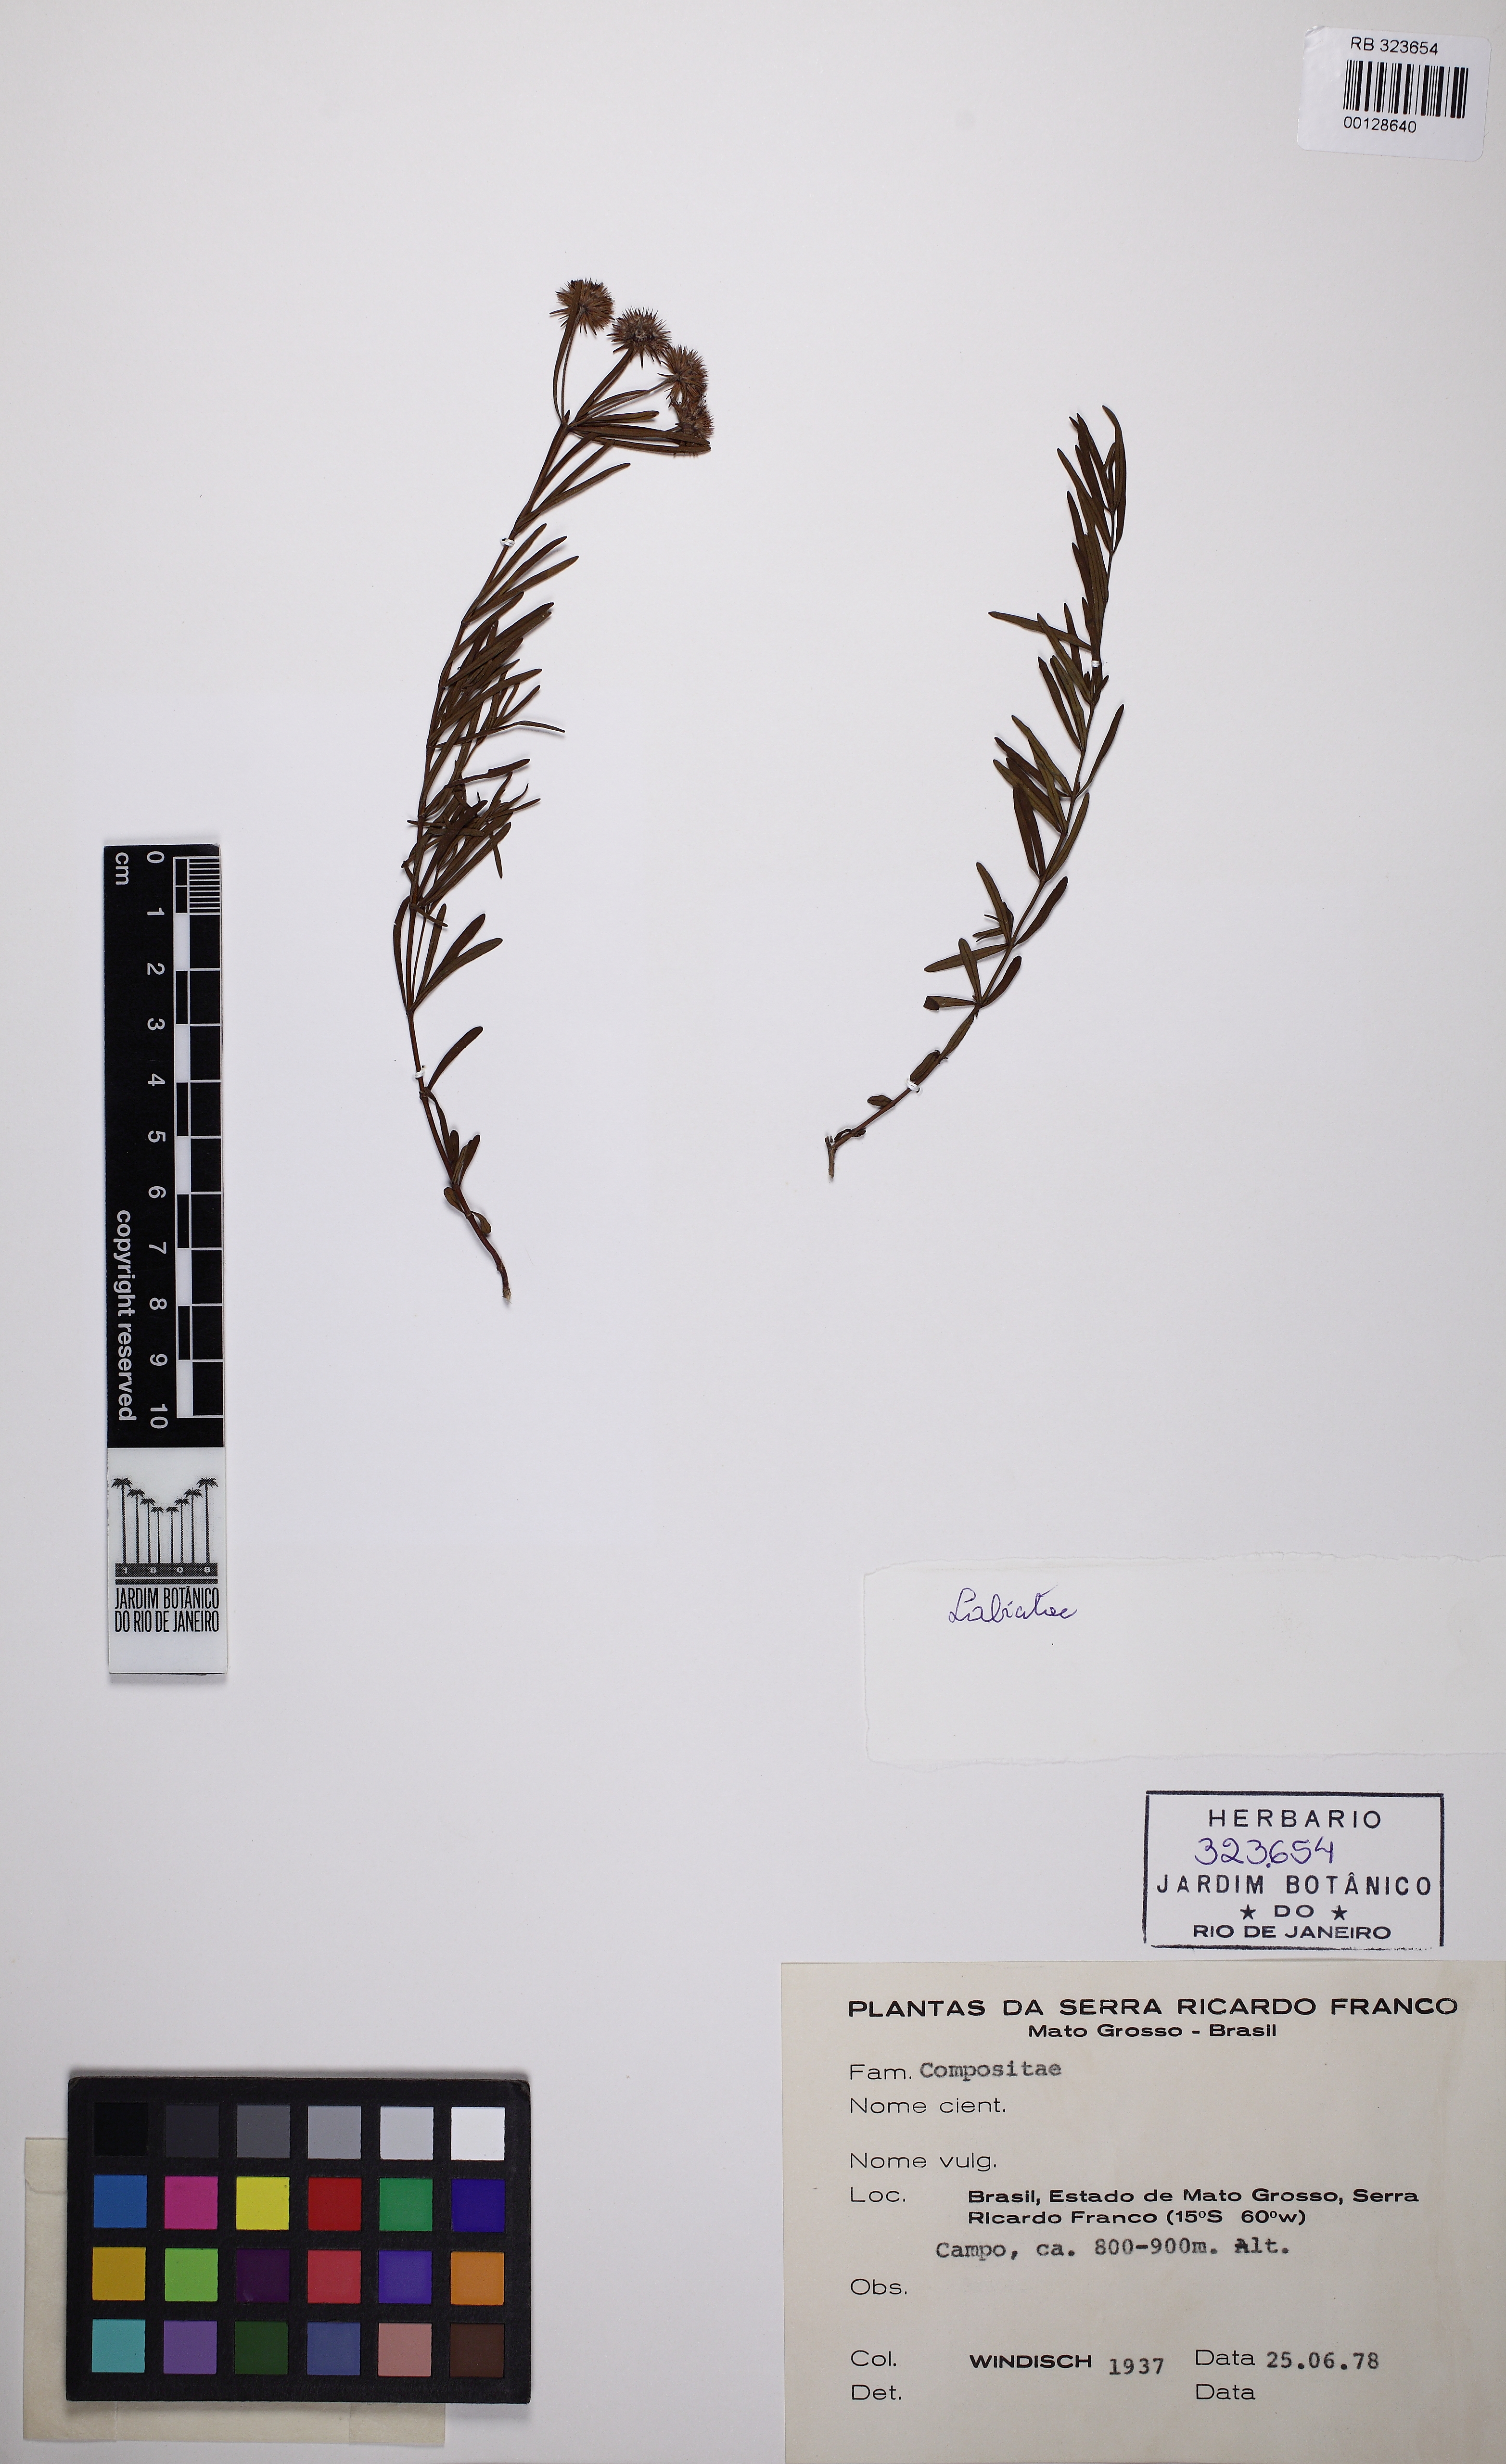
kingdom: Plantae
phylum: Tracheophyta
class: Magnoliopsida
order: Lamiales
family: Lamiaceae
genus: Hyptis
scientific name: Hyptis
